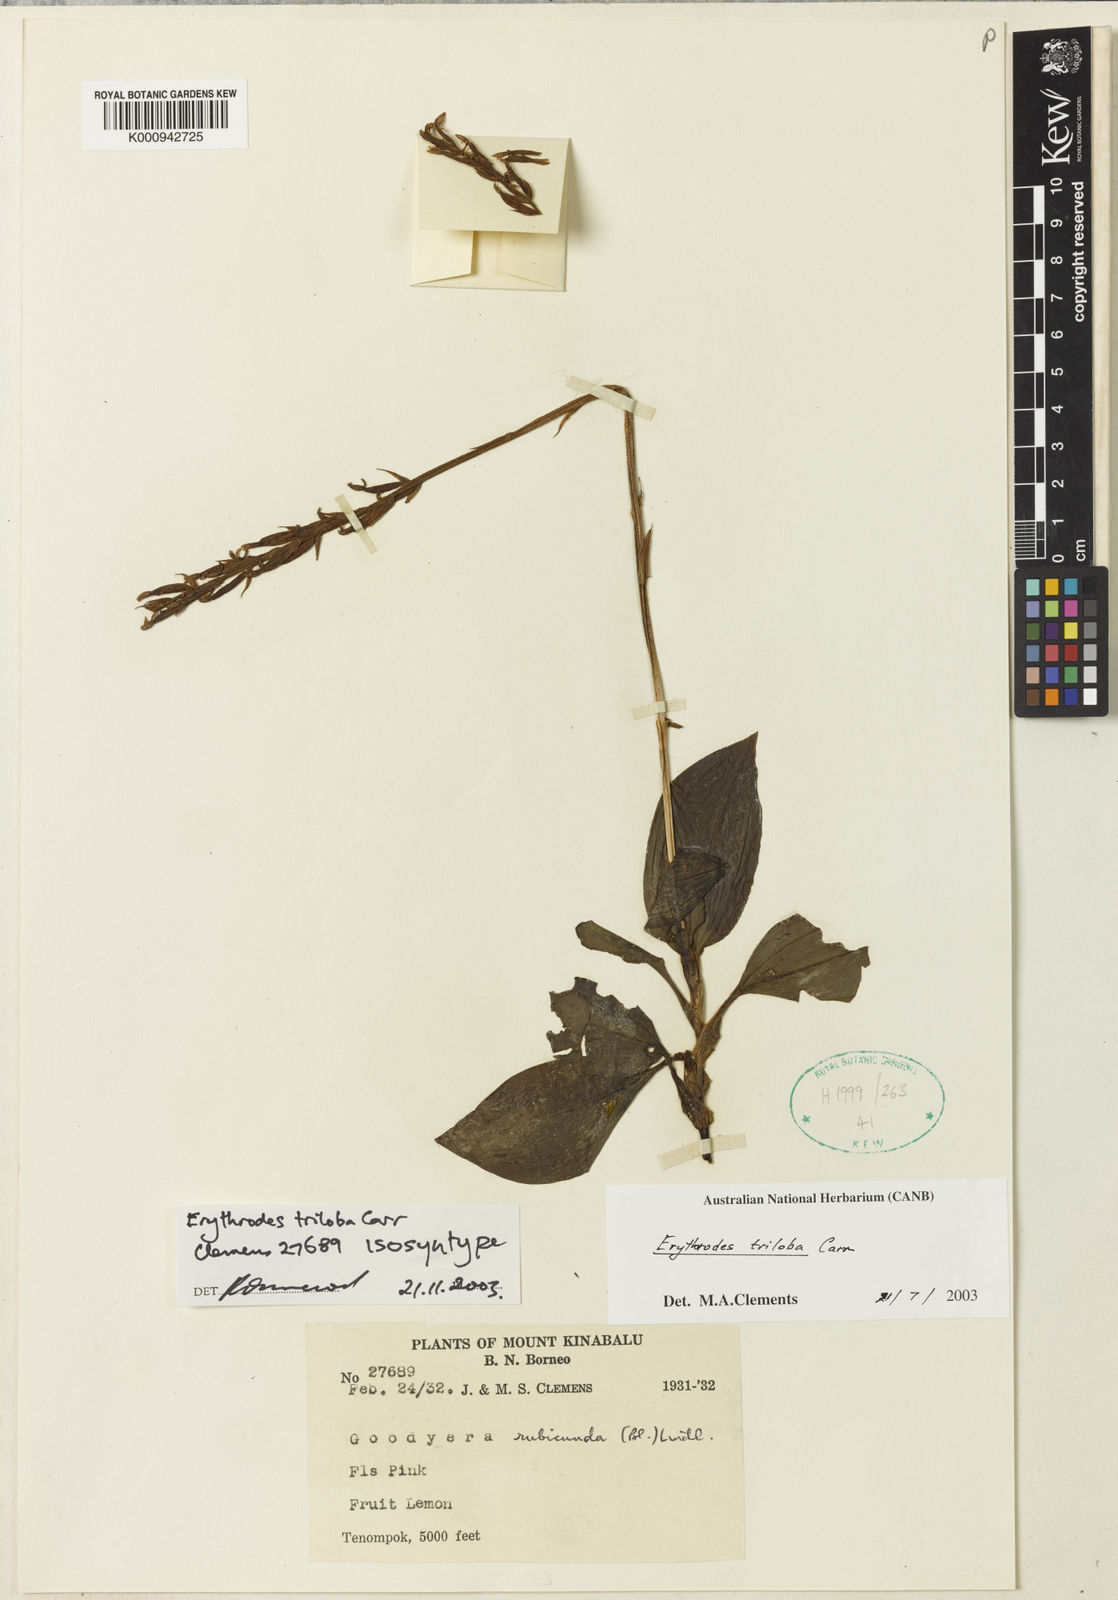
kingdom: Plantae
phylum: Tracheophyta
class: Liliopsida
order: Asparagales
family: Orchidaceae
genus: Erythrodes
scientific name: Erythrodes triloba
